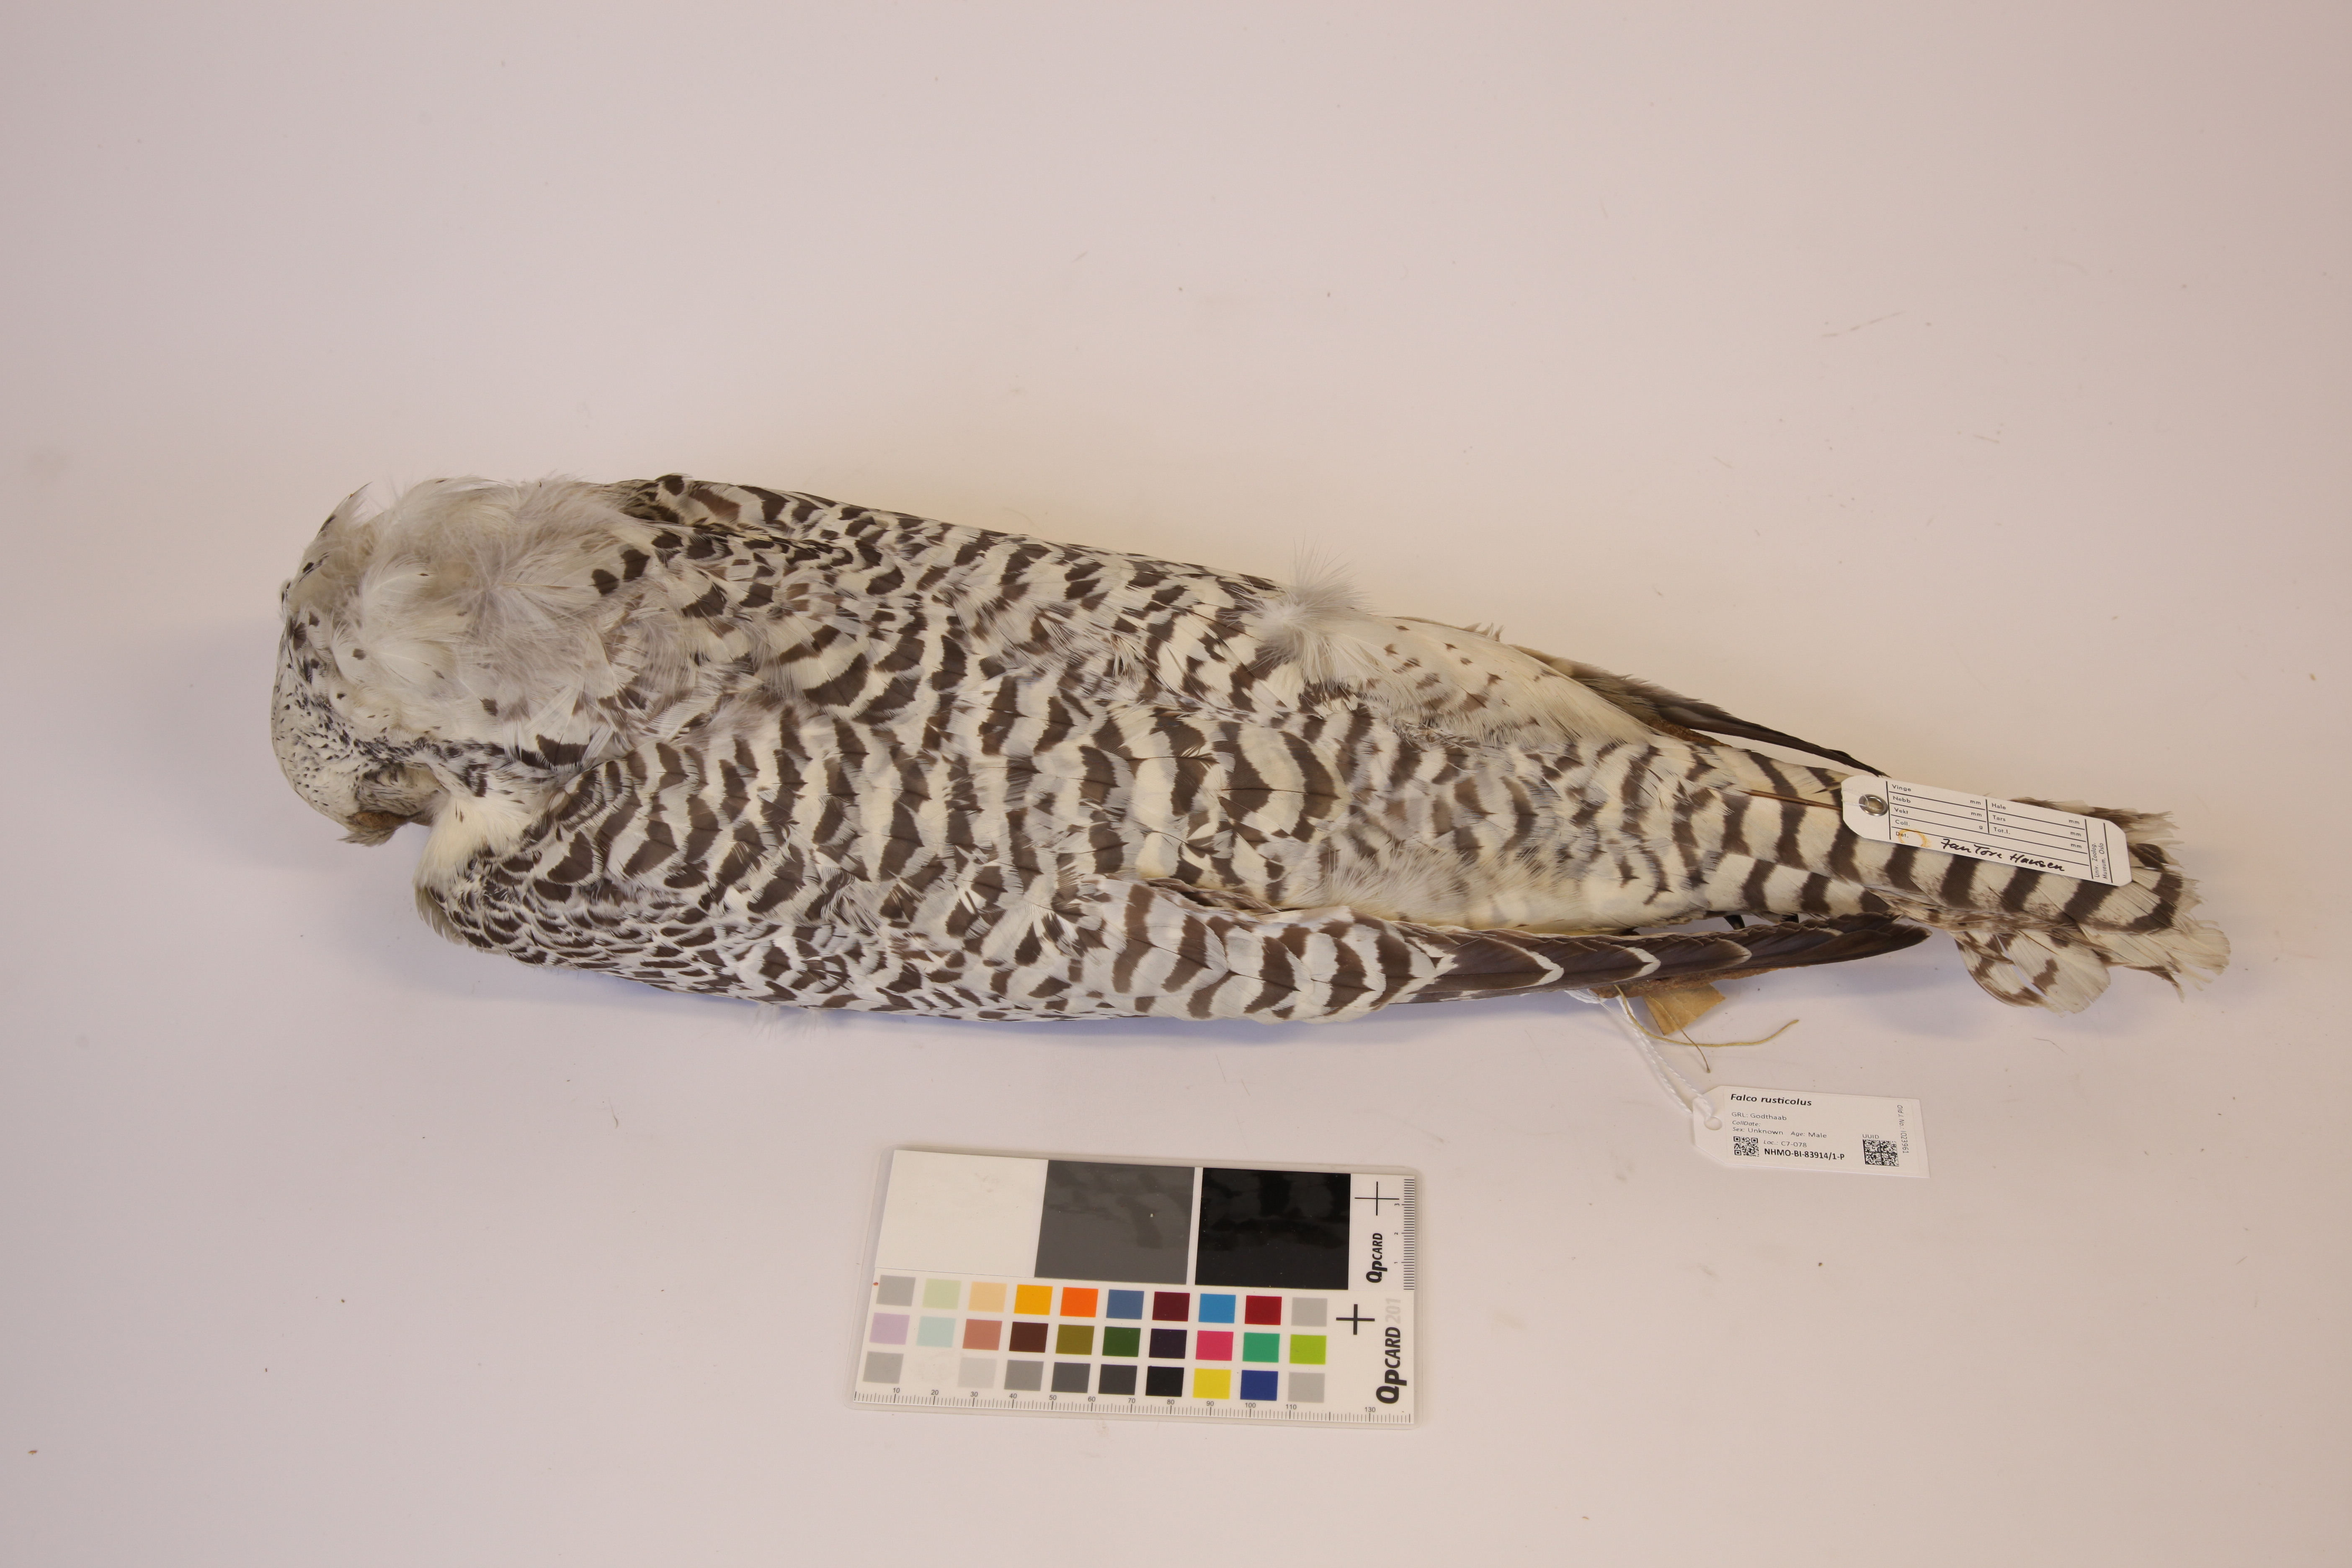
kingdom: Animalia
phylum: Chordata
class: Aves
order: Falconiformes
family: Falconidae
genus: Falco
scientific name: Falco rusticolus
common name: Gyrfalcon
